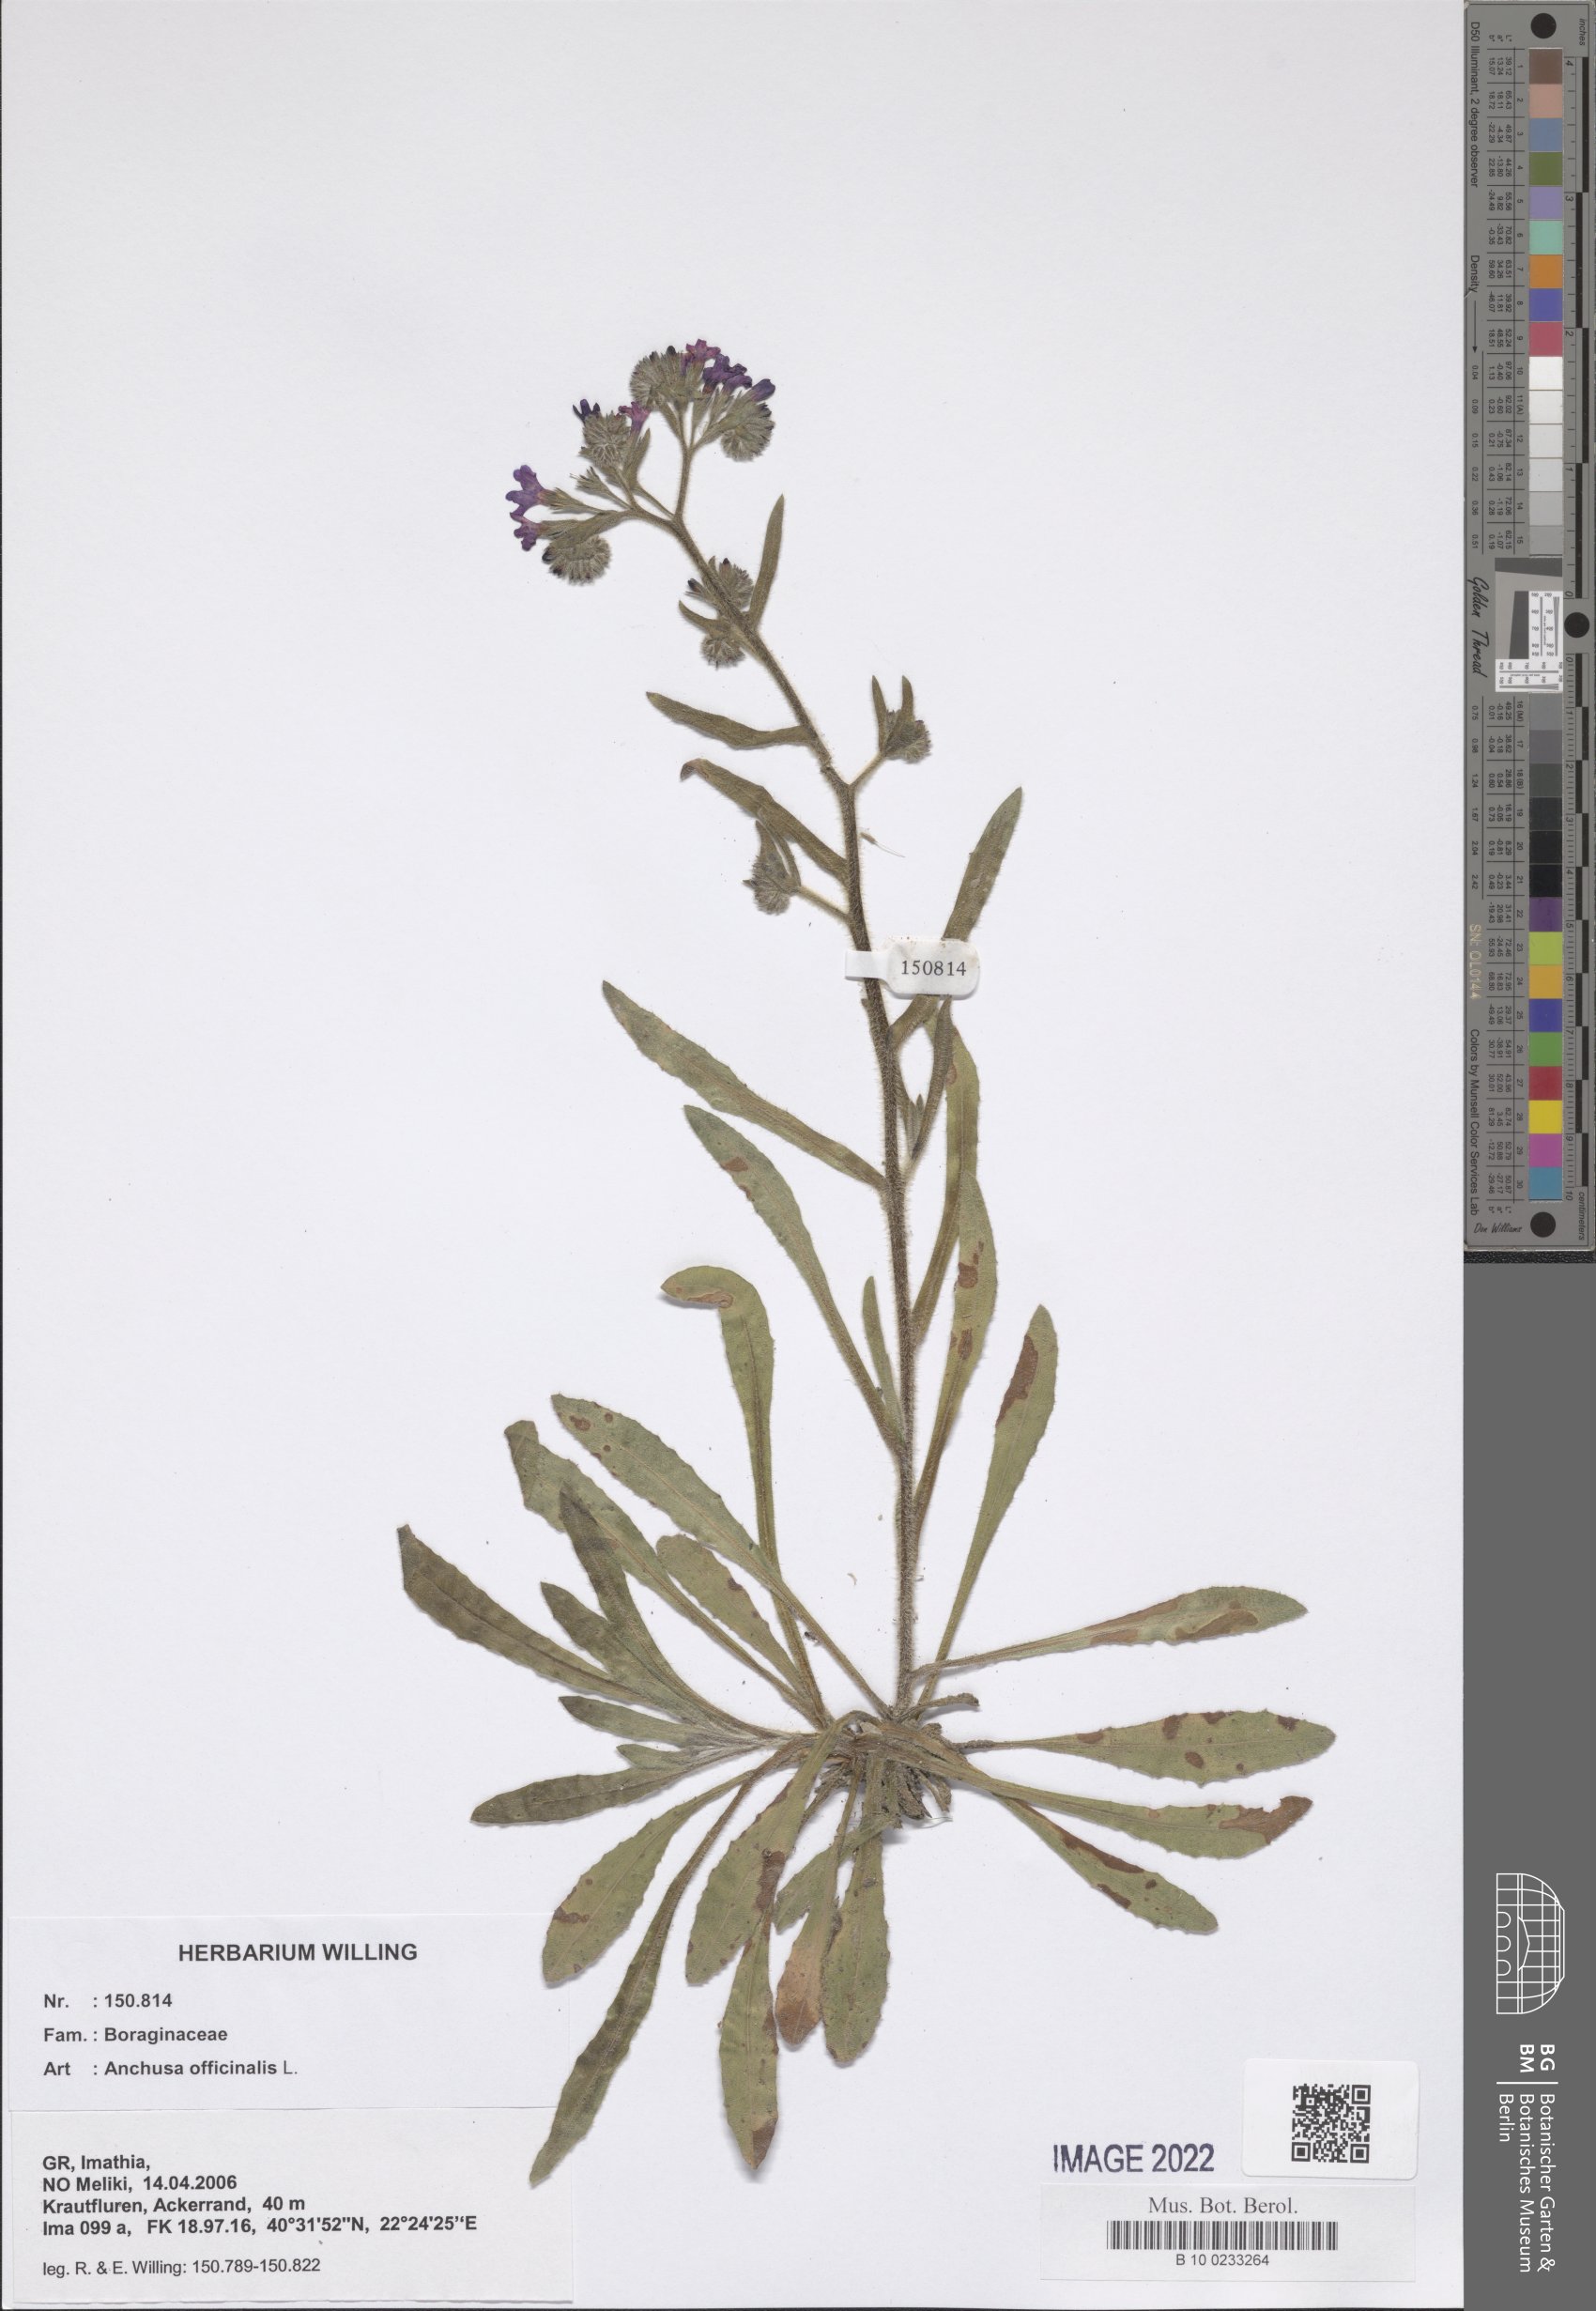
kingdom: Plantae
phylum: Tracheophyta
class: Magnoliopsida
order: Boraginales
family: Boraginaceae
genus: Anchusa
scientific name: Anchusa officinalis
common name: Alkanet
